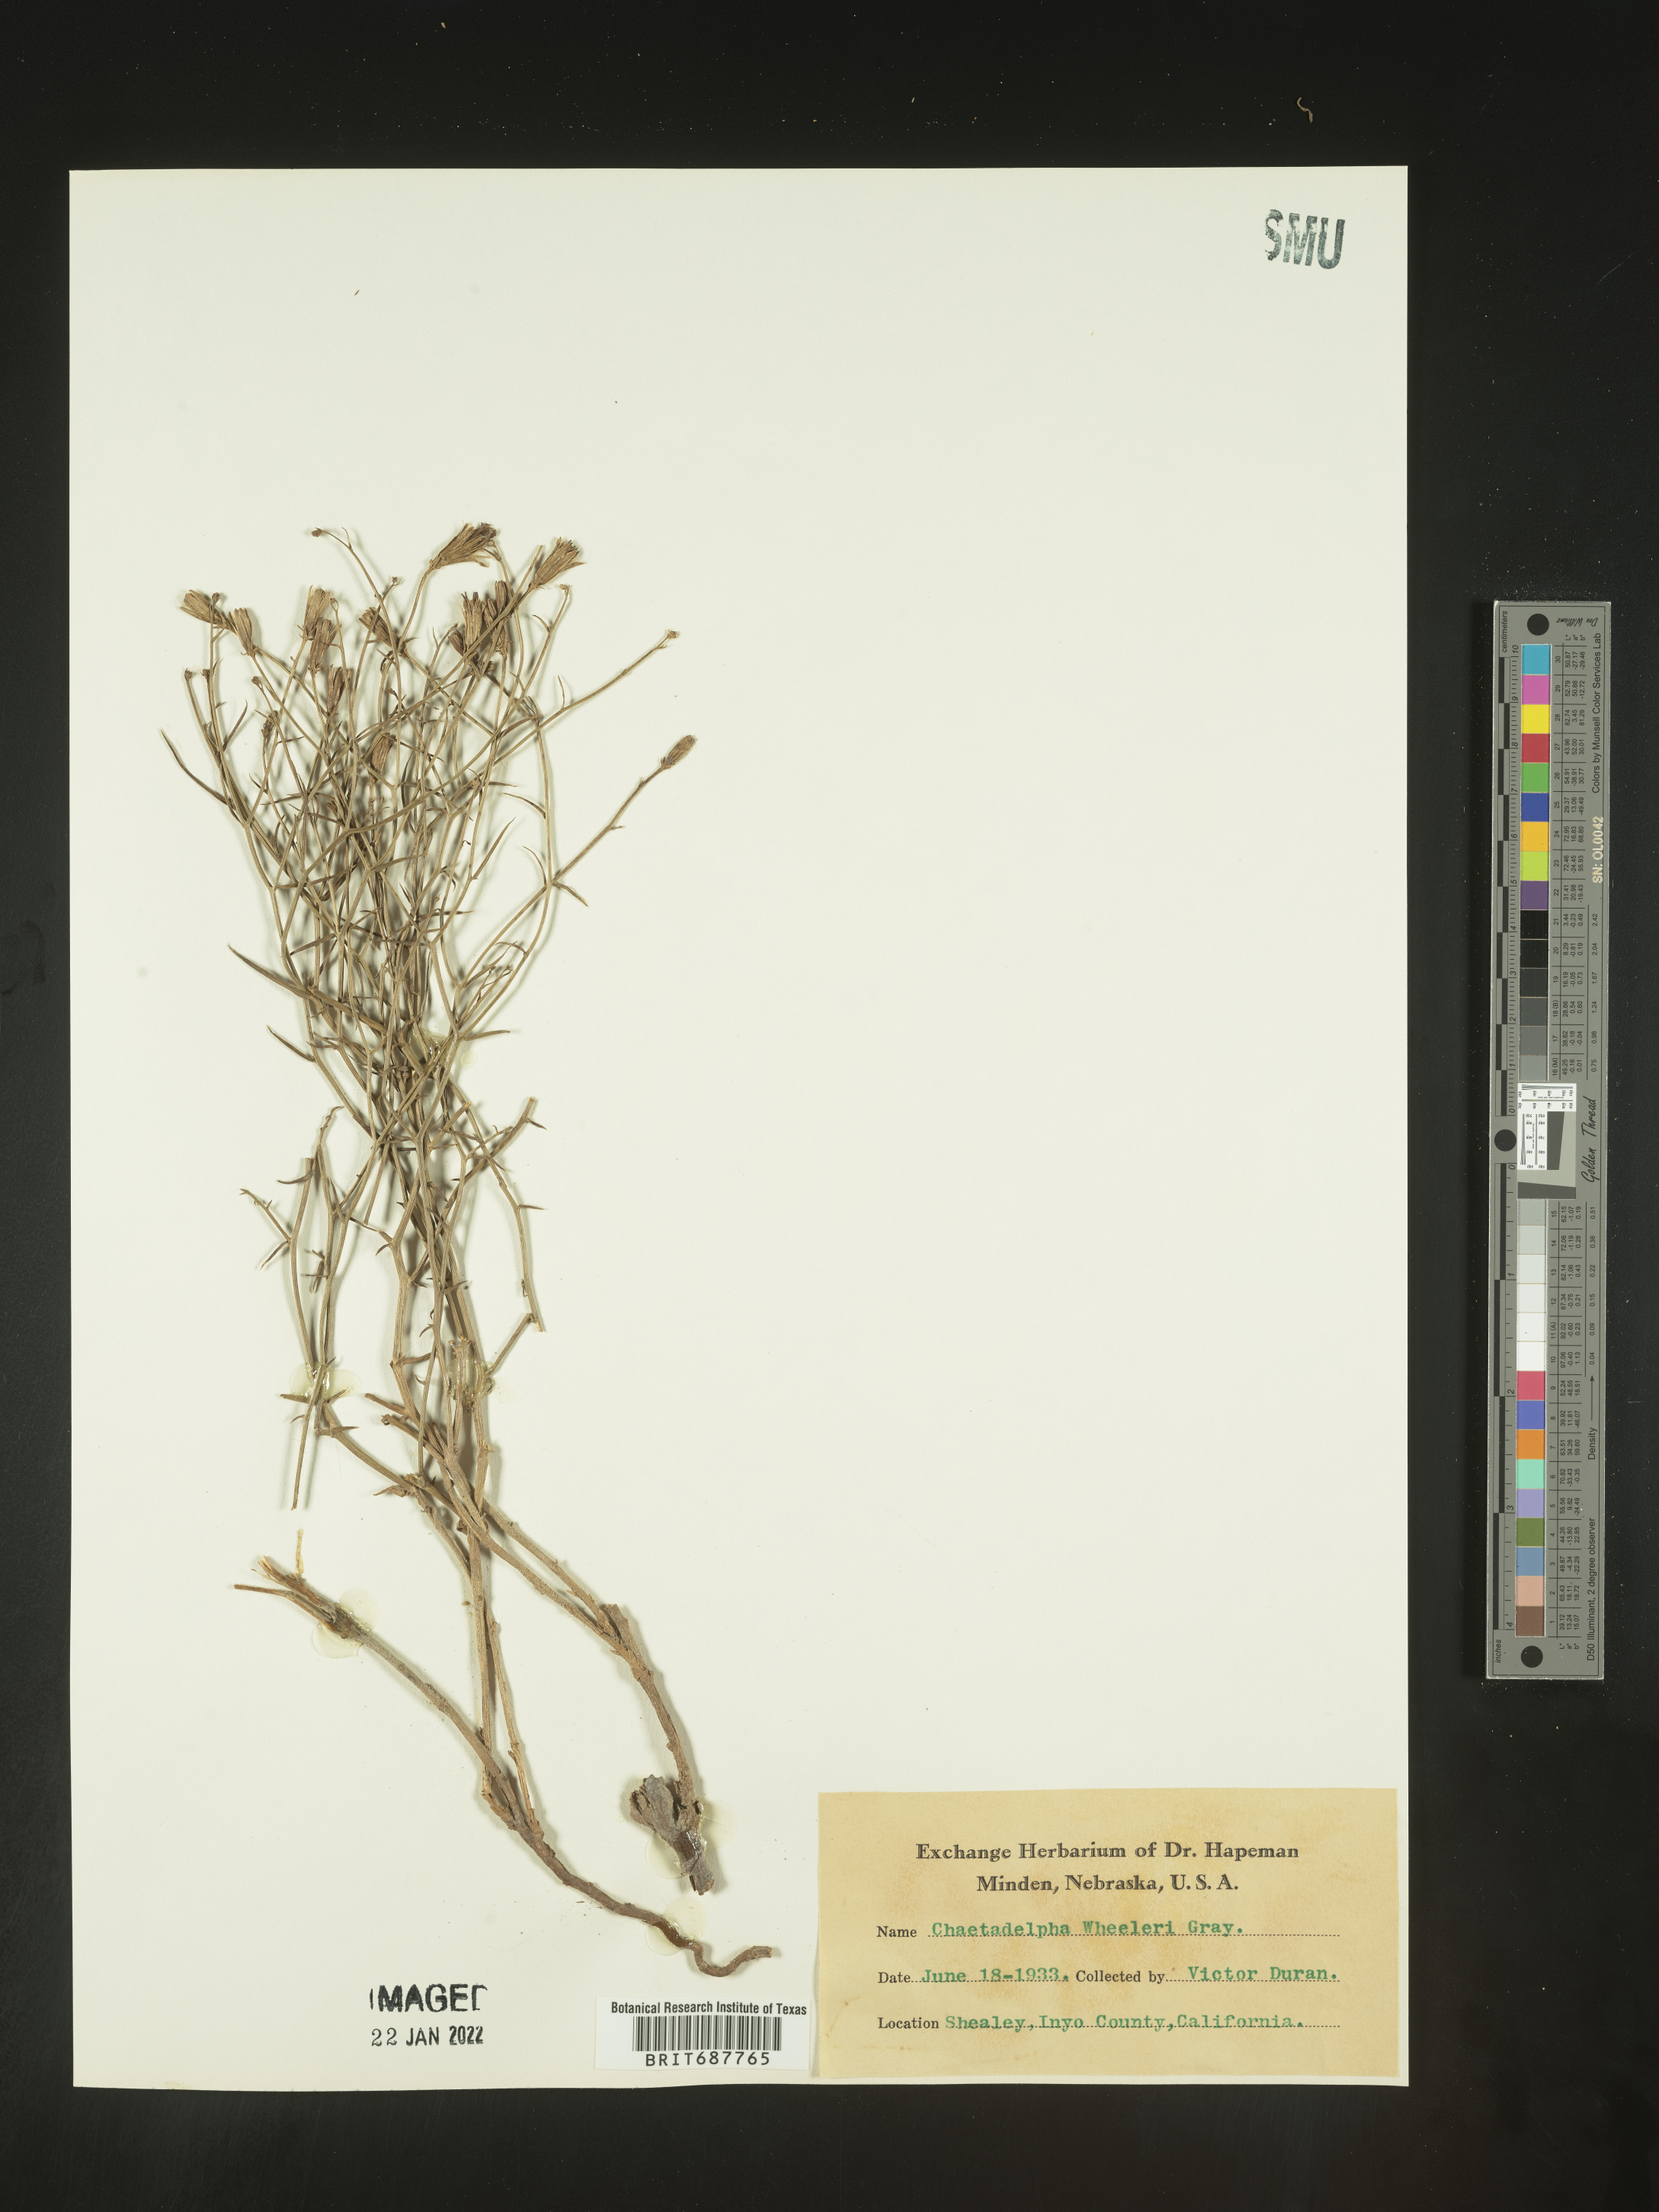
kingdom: Plantae
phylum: Tracheophyta
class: Magnoliopsida
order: Asterales
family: Asteraceae
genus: Chaetadelpha
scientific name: Chaetadelpha wheeleri
